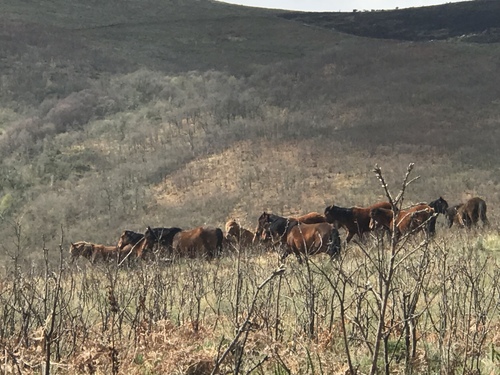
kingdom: Animalia
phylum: Chordata
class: Mammalia
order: Perissodactyla
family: Equidae
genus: Equus
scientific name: Equus caballus
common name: Horse
